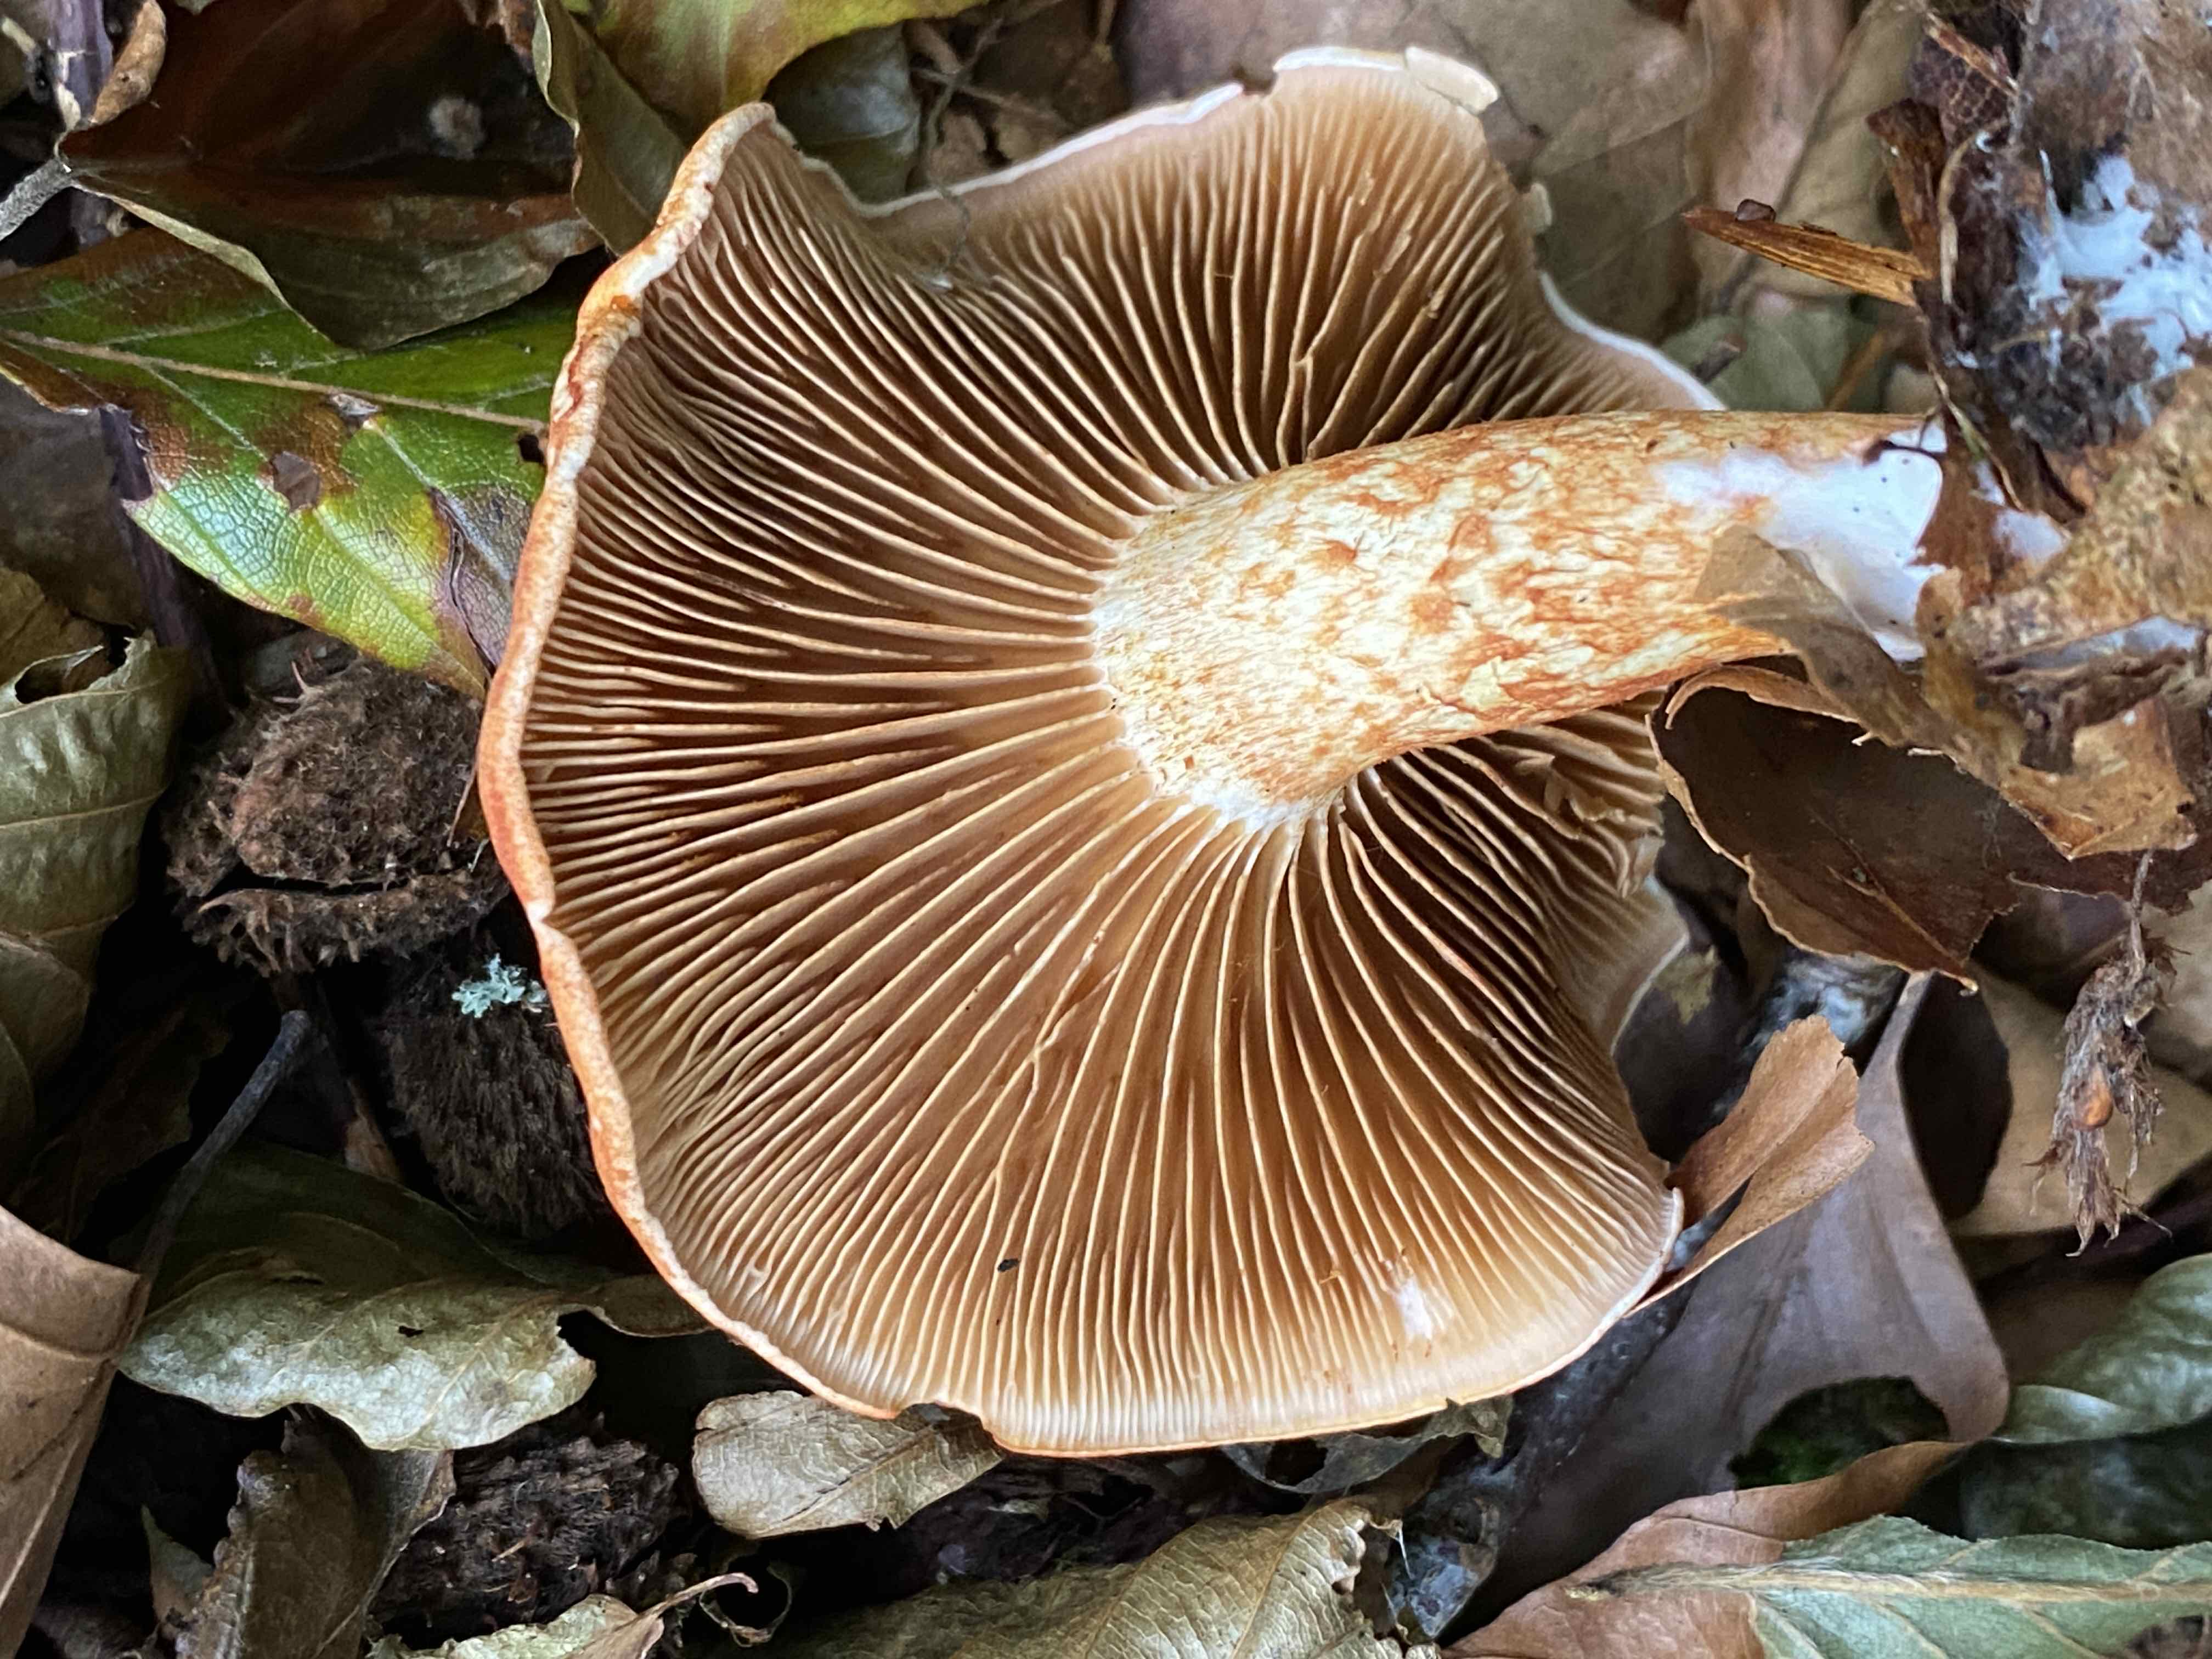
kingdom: Fungi
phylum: Basidiomycota
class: Agaricomycetes
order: Agaricales
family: Cortinariaceae
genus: Cortinarius
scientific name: Cortinarius bolaris
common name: cinnoberskællet slørhat
